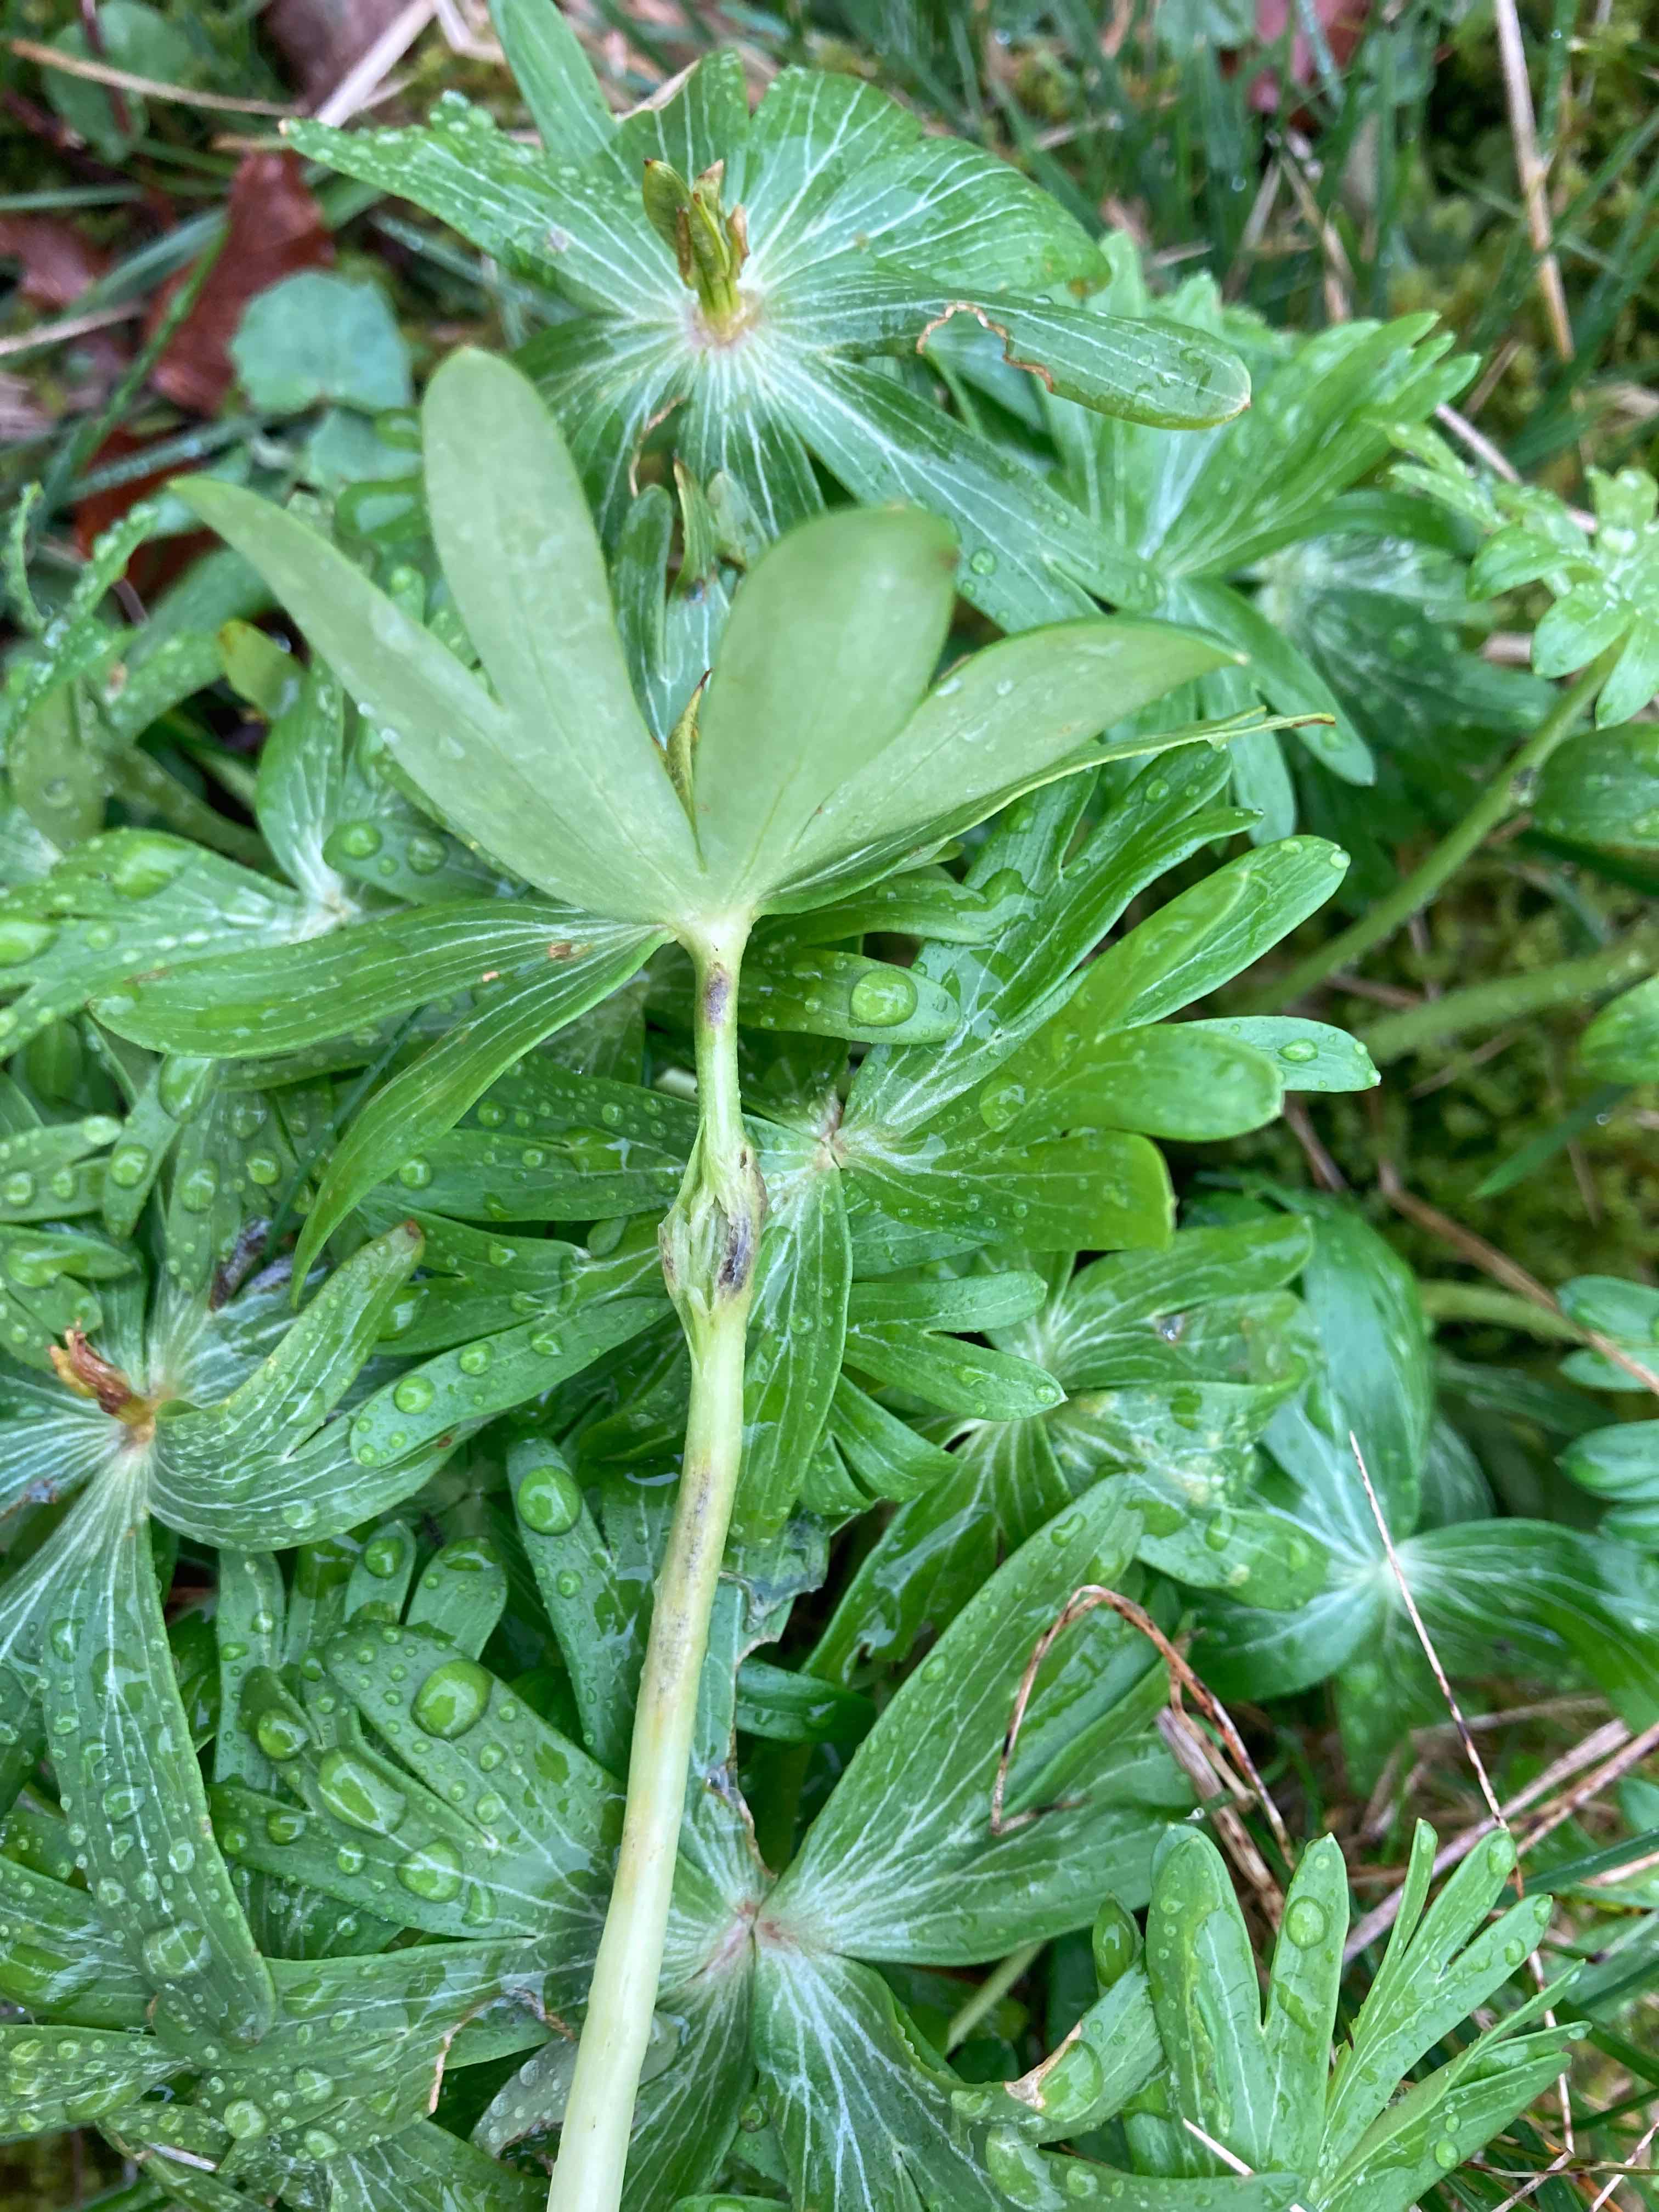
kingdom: Fungi
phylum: Basidiomycota
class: Ustilaginomycetes
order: Urocystidales
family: Urocystidaceae
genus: Urocystis
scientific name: Urocystis eranthidis
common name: erantis-brand
